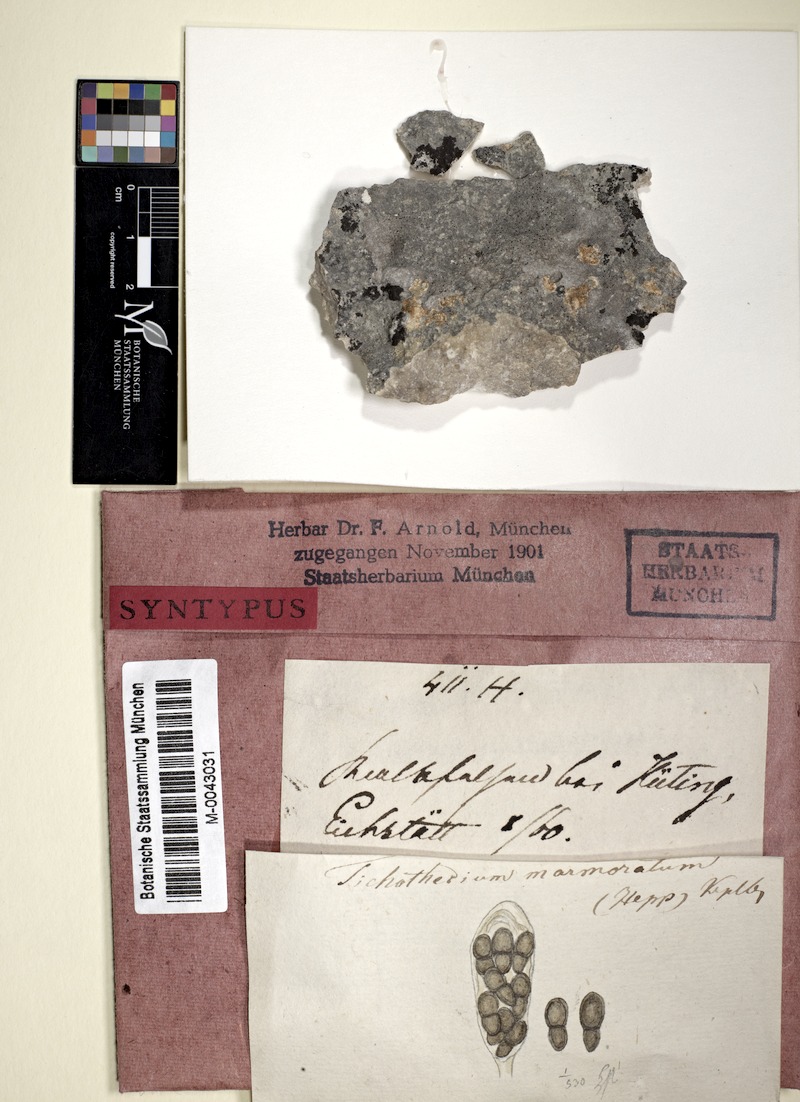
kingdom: Fungi
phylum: Ascomycota
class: Dothideomycetes
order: Trypetheliales
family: Polycoccaceae
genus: Polycoccum
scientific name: Polycoccum marmoratum
